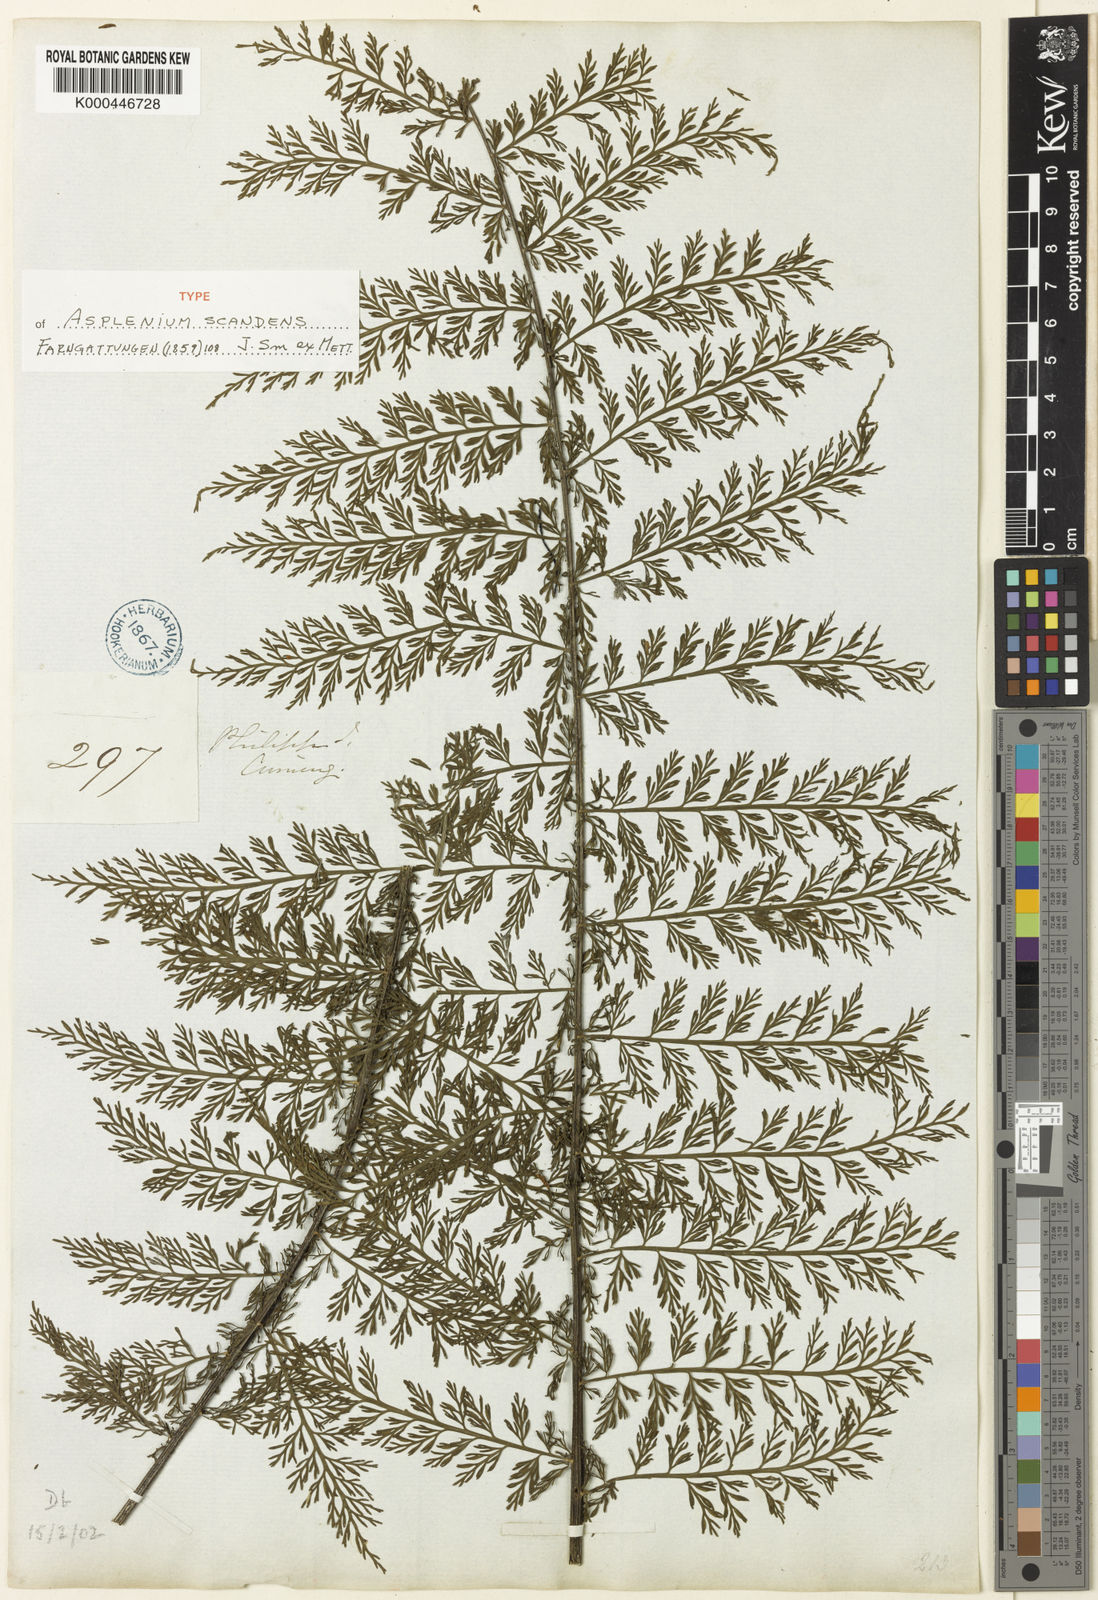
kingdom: Plantae
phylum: Tracheophyta
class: Polypodiopsida
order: Polypodiales
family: Aspleniaceae
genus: Asplenium
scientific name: Asplenium scandens
